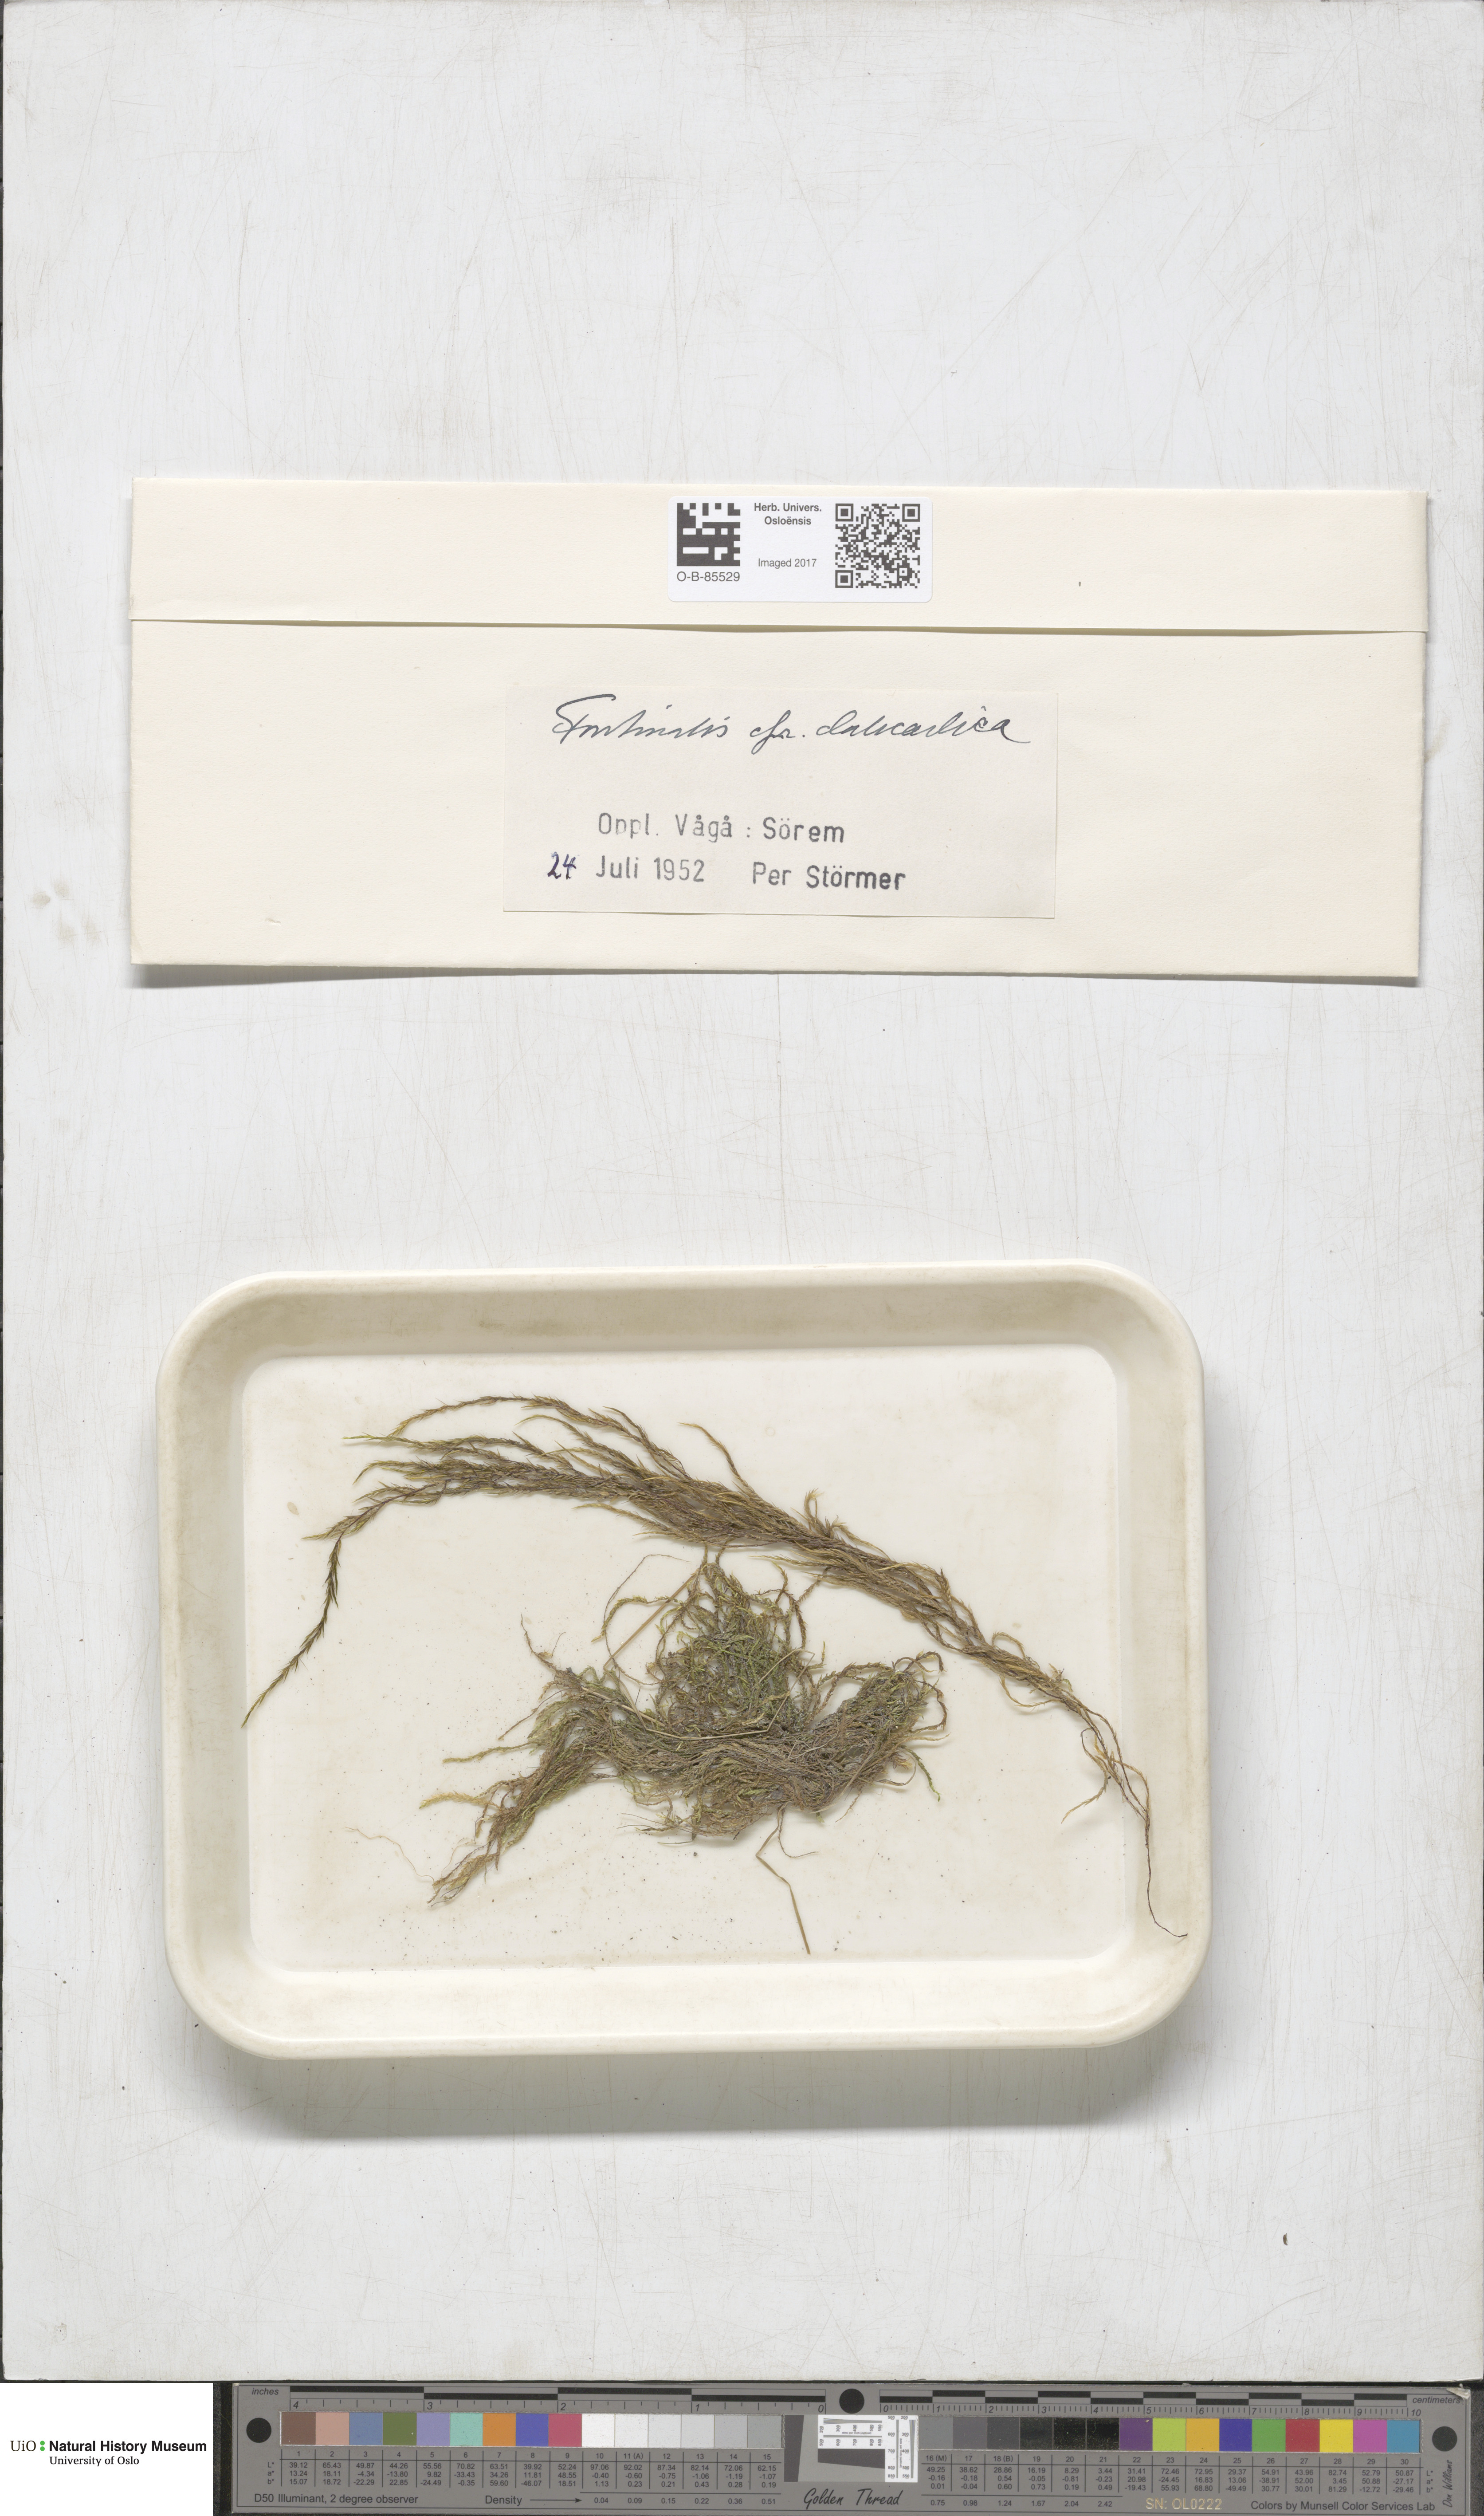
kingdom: Plantae
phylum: Bryophyta
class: Bryopsida
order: Hypnales
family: Fontinalaceae
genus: Fontinalis
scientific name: Fontinalis dalecarlica
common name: Slender water moss
